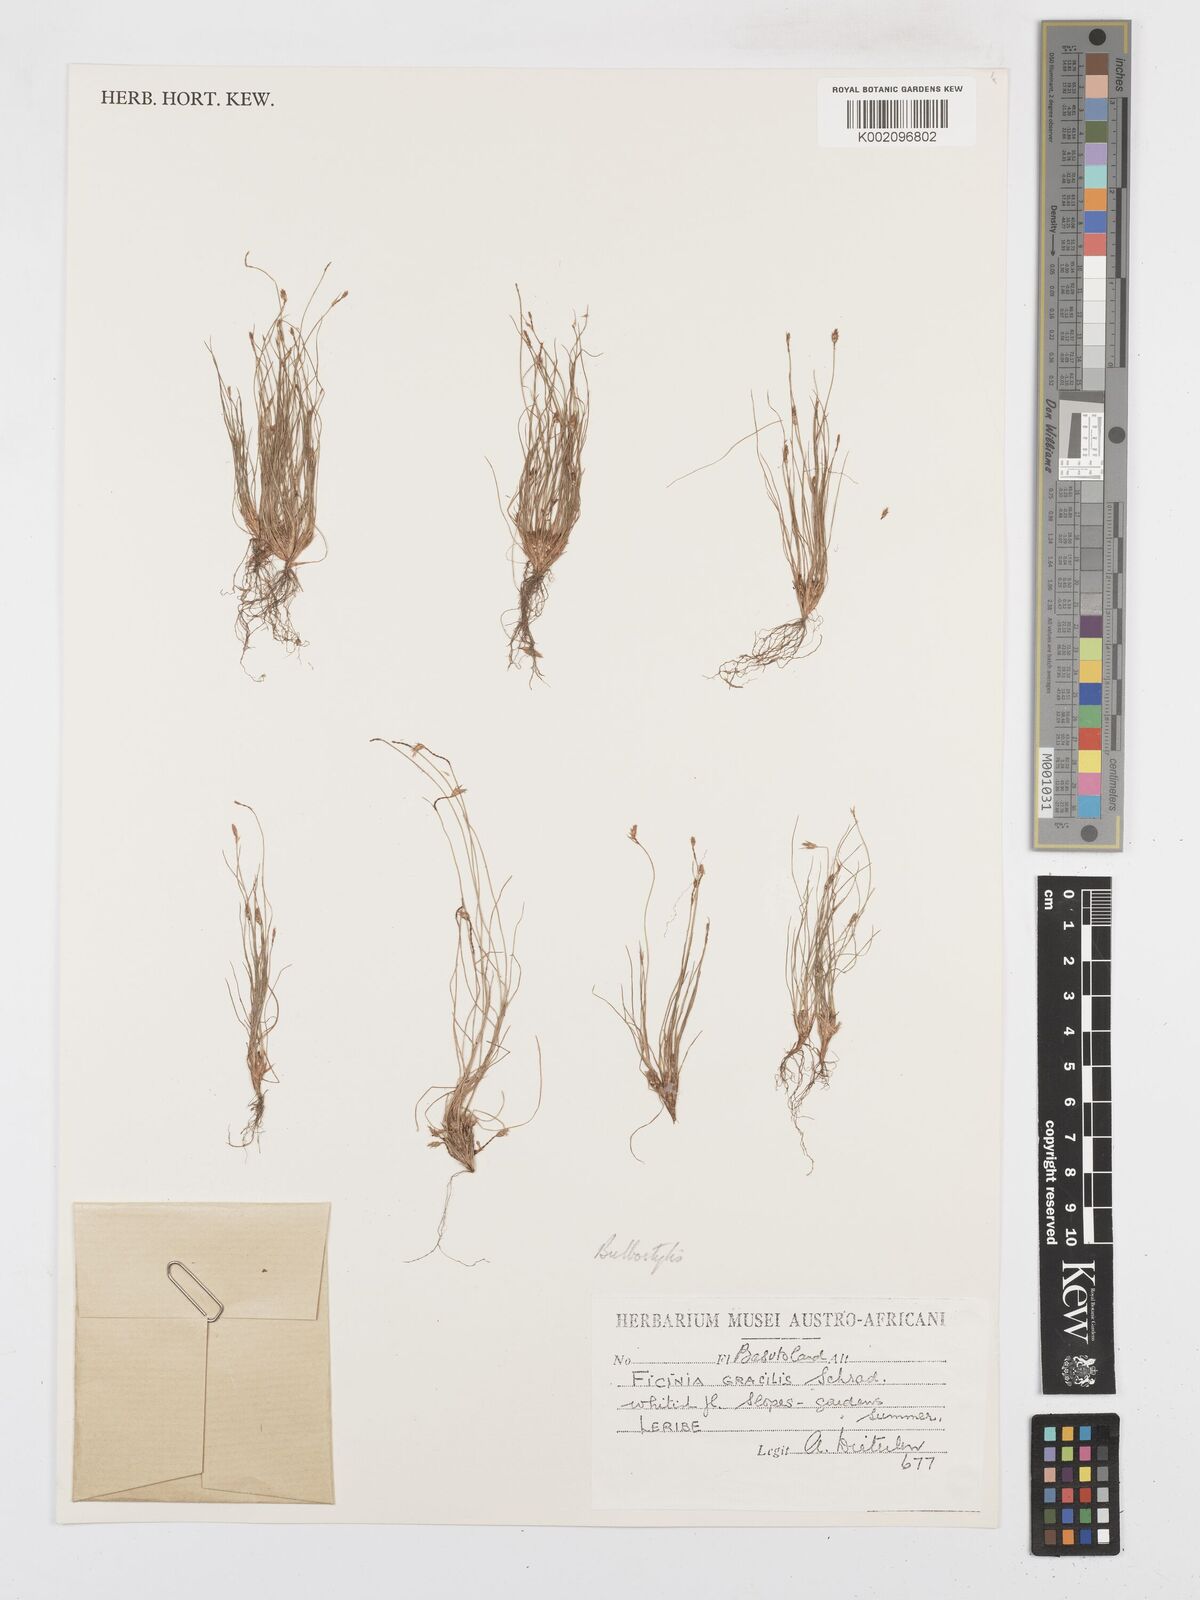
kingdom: Plantae
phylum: Tracheophyta
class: Liliopsida
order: Poales
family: Cyperaceae
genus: Bulbostylis
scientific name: Bulbostylis
